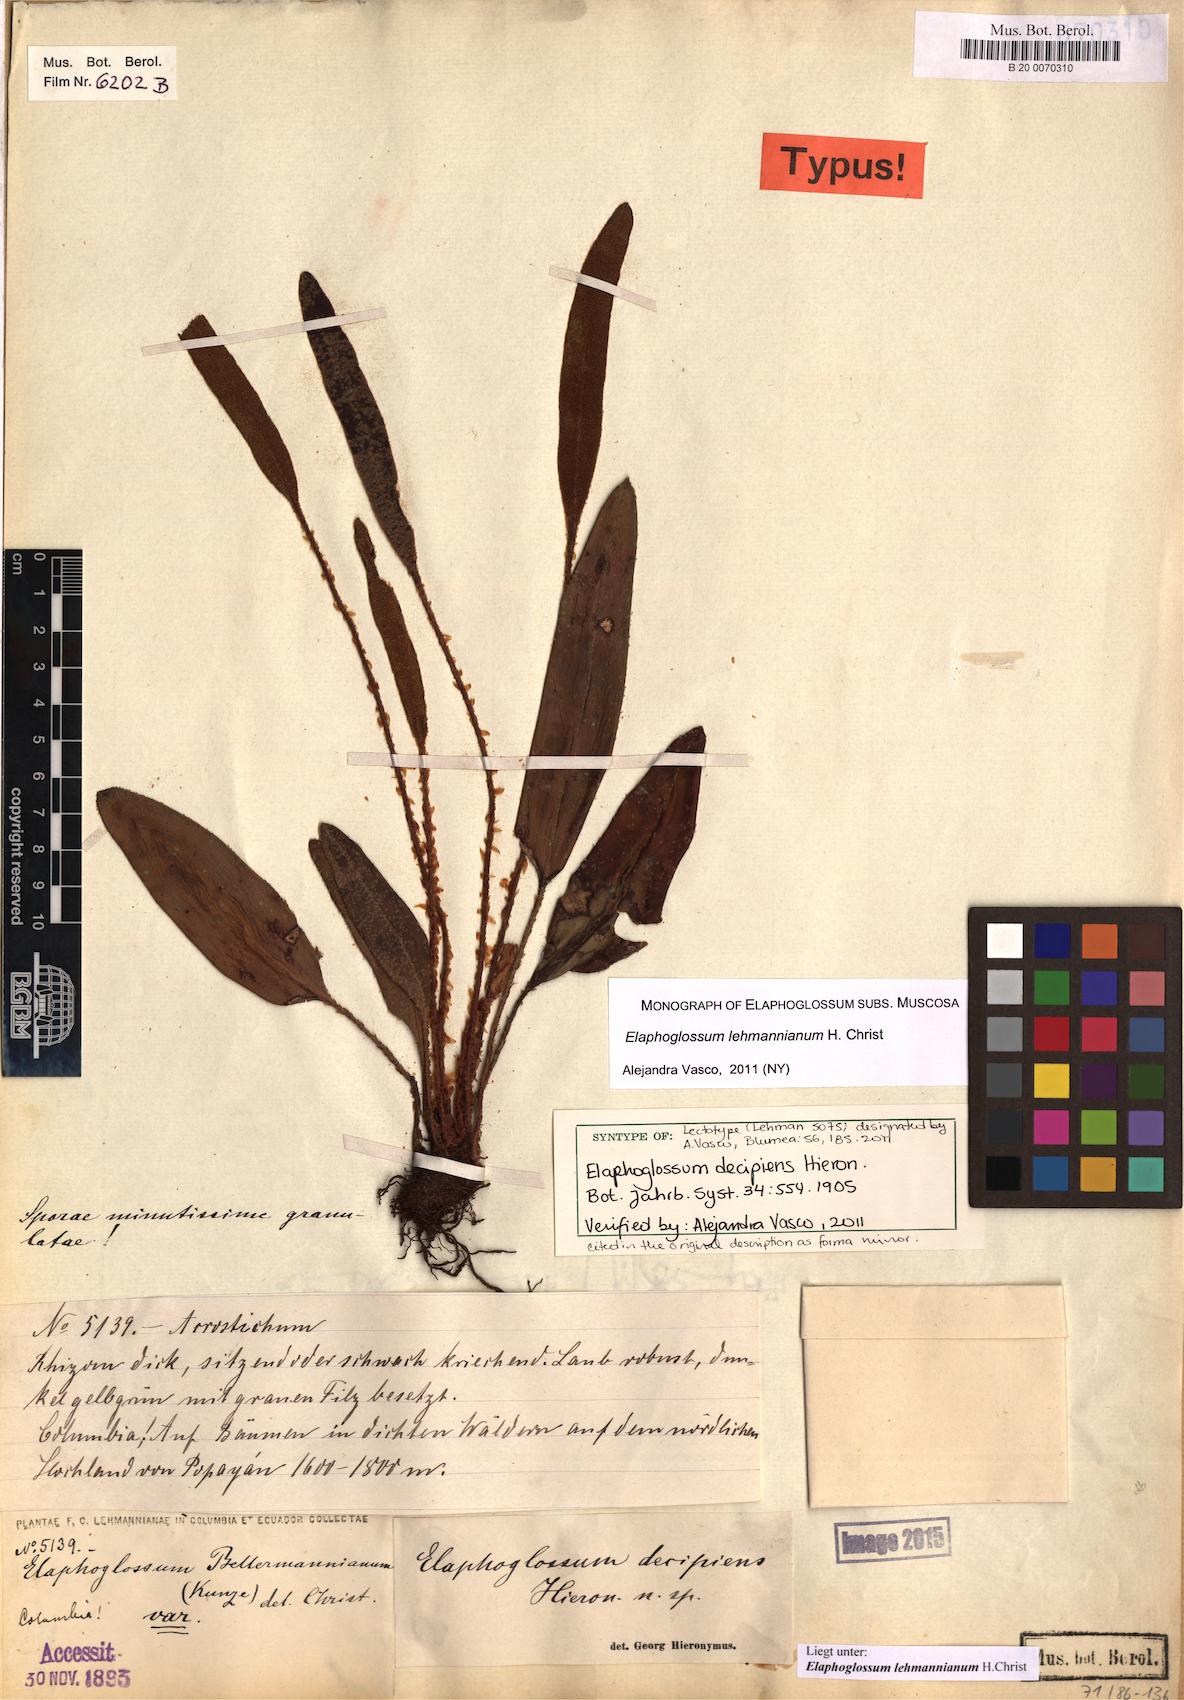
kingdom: Plantae
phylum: Tracheophyta
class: Polypodiopsida
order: Polypodiales
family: Dryopteridaceae
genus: Elaphoglossum
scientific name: Elaphoglossum lehmannianum
